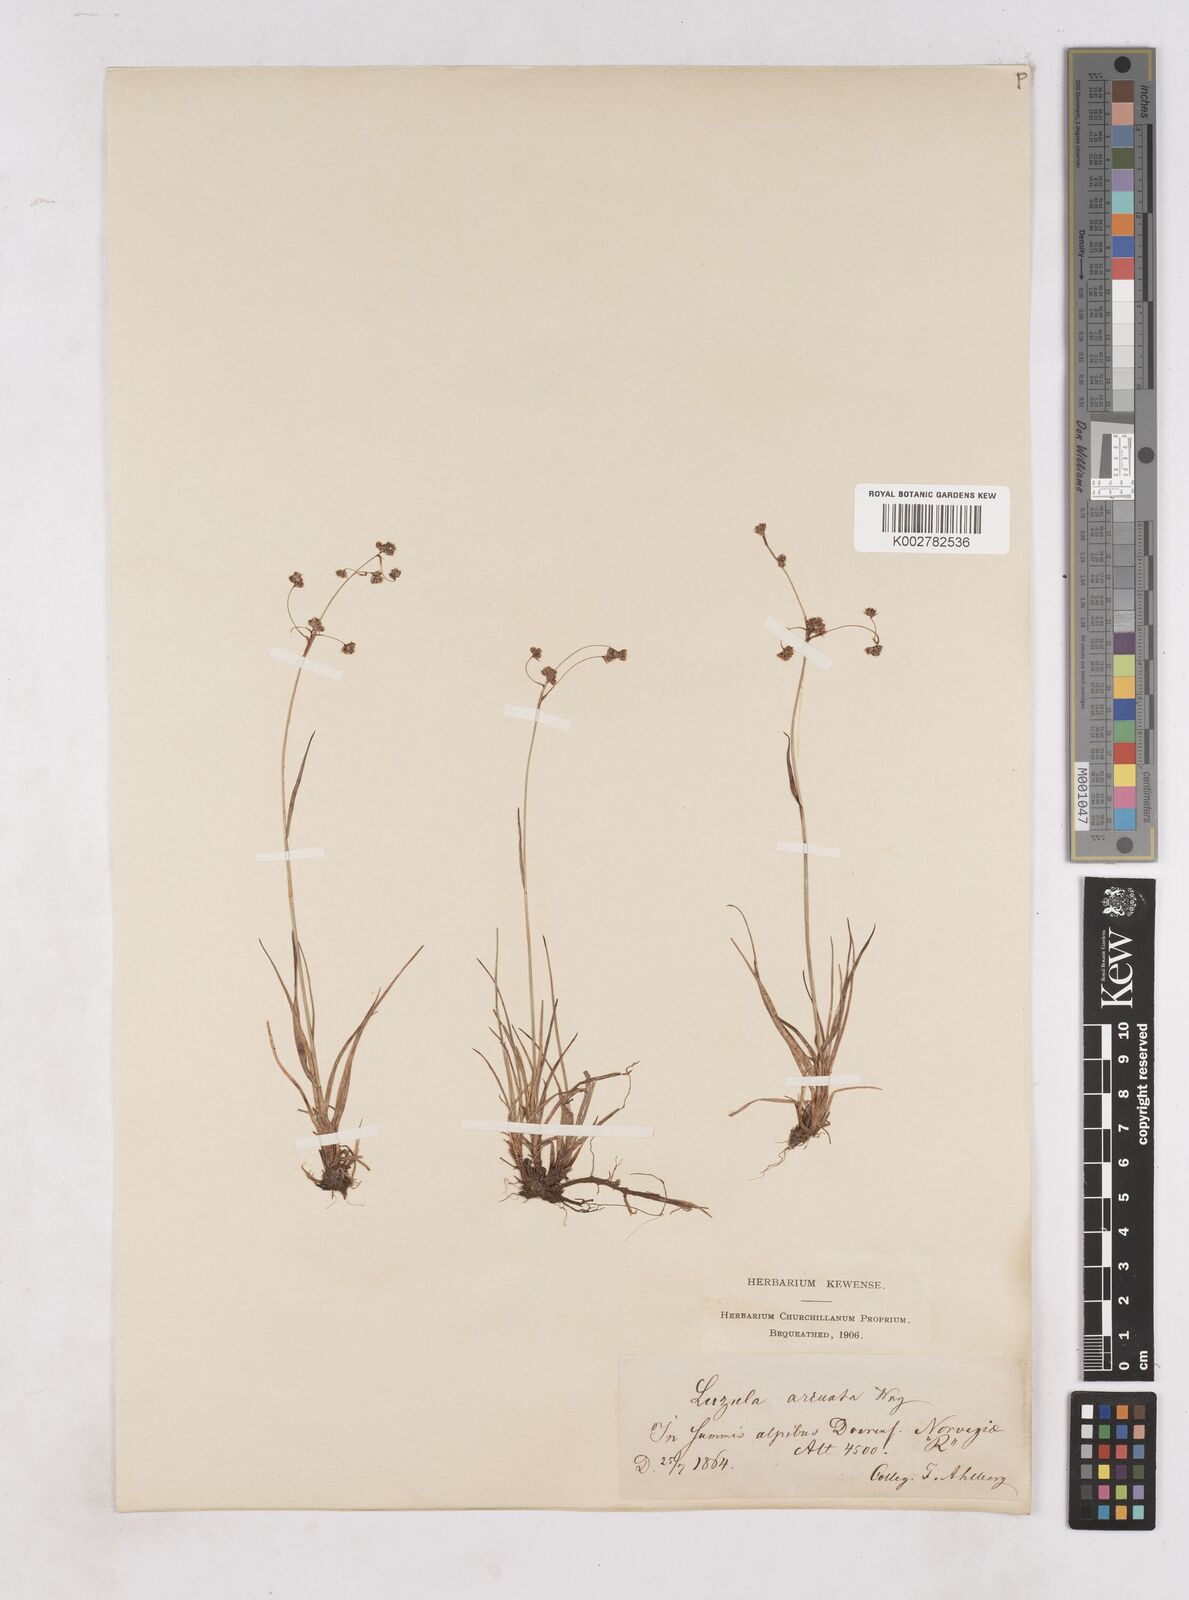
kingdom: Plantae
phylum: Tracheophyta
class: Liliopsida
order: Poales
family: Juncaceae
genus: Luzula
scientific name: Luzula arcuata
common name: Curved wood-rush
